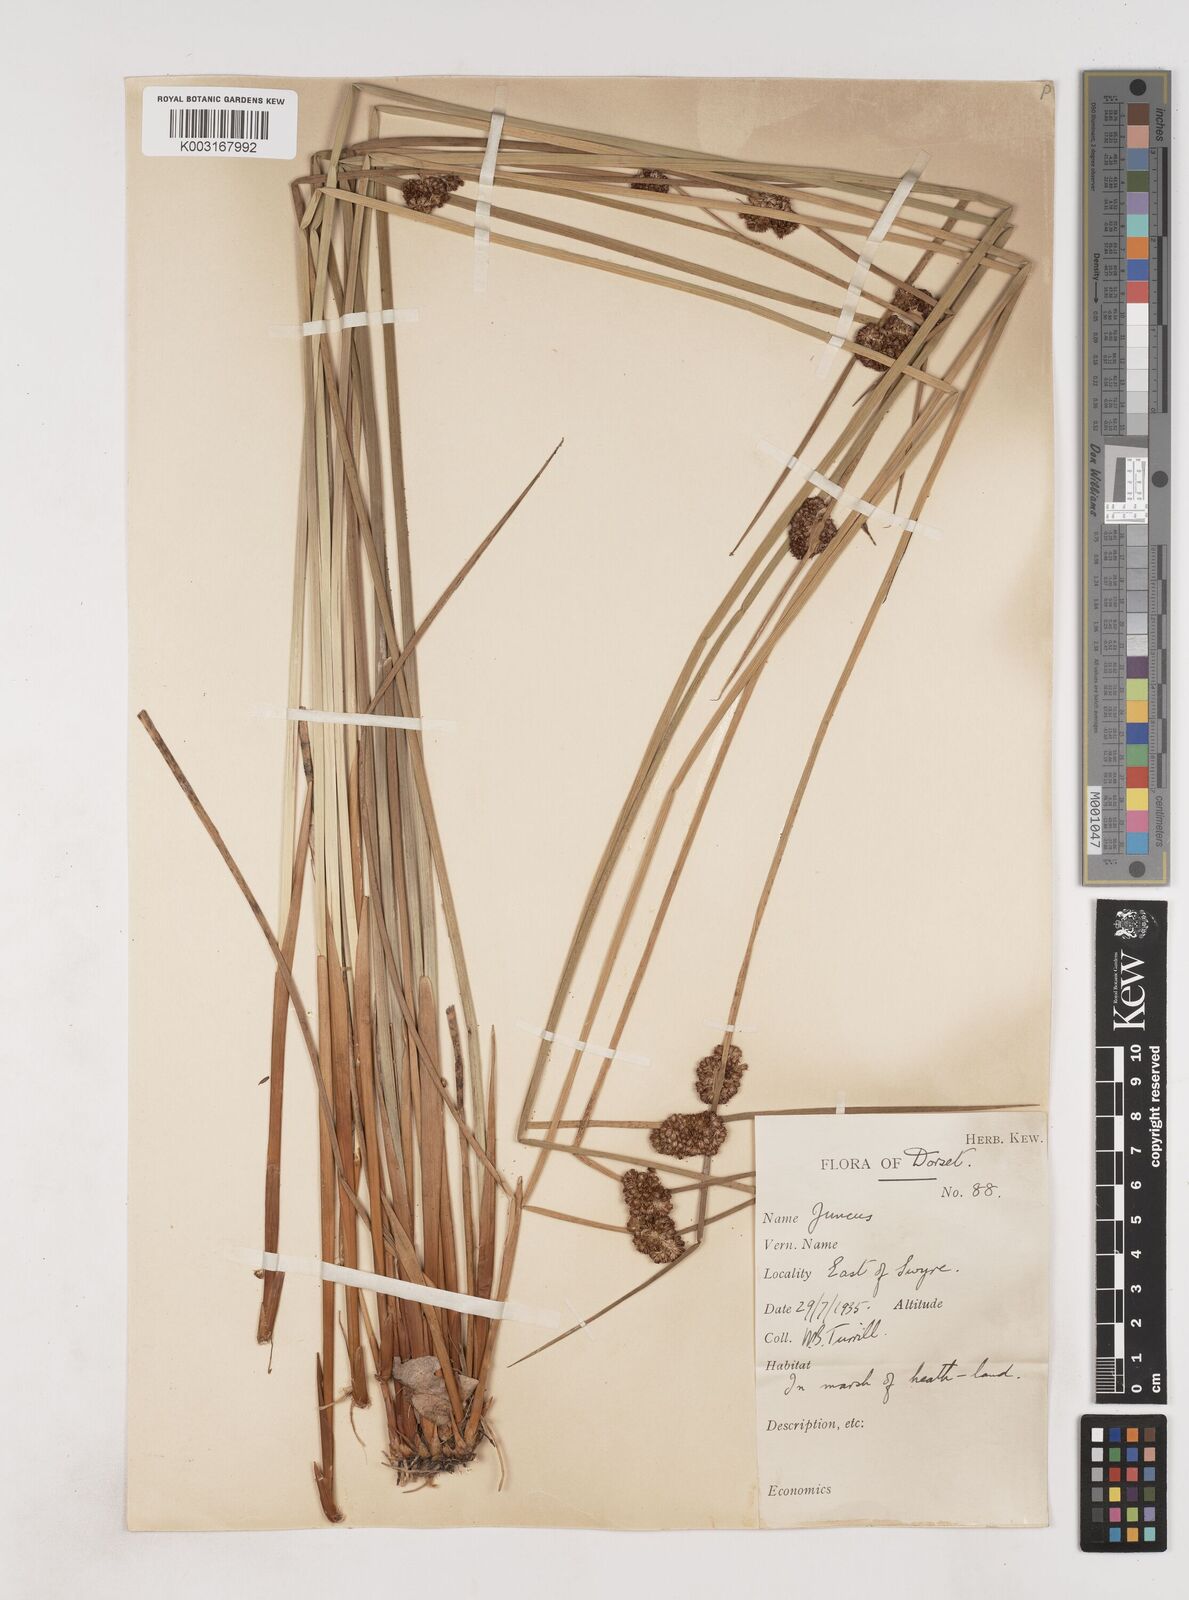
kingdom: Plantae
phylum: Tracheophyta
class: Liliopsida
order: Poales
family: Juncaceae
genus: Juncus
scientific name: Juncus conglomeratus
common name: Compact rush
